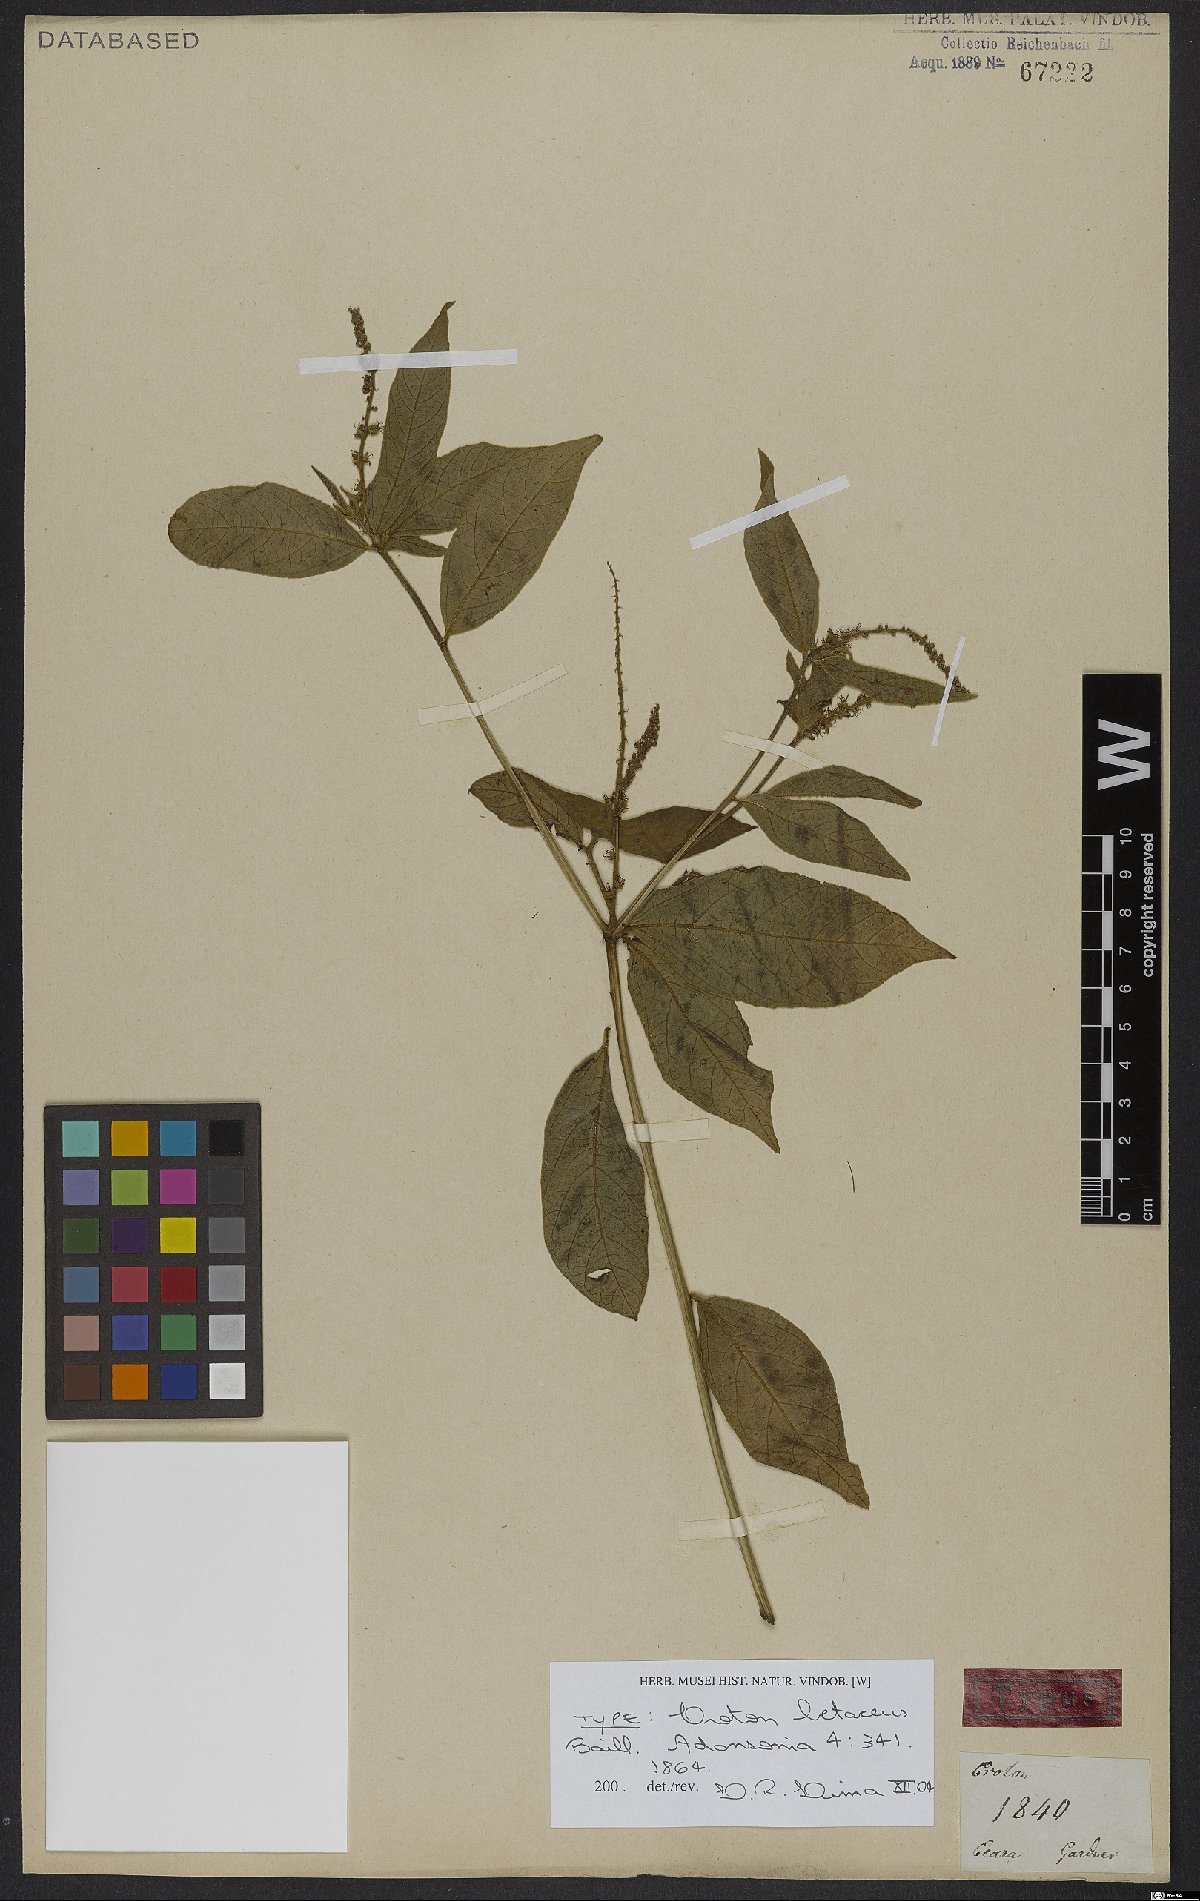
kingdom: Plantae
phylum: Tracheophyta
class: Magnoliopsida
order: Malpighiales
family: Euphorbiaceae
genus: Croton
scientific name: Croton betaceus
